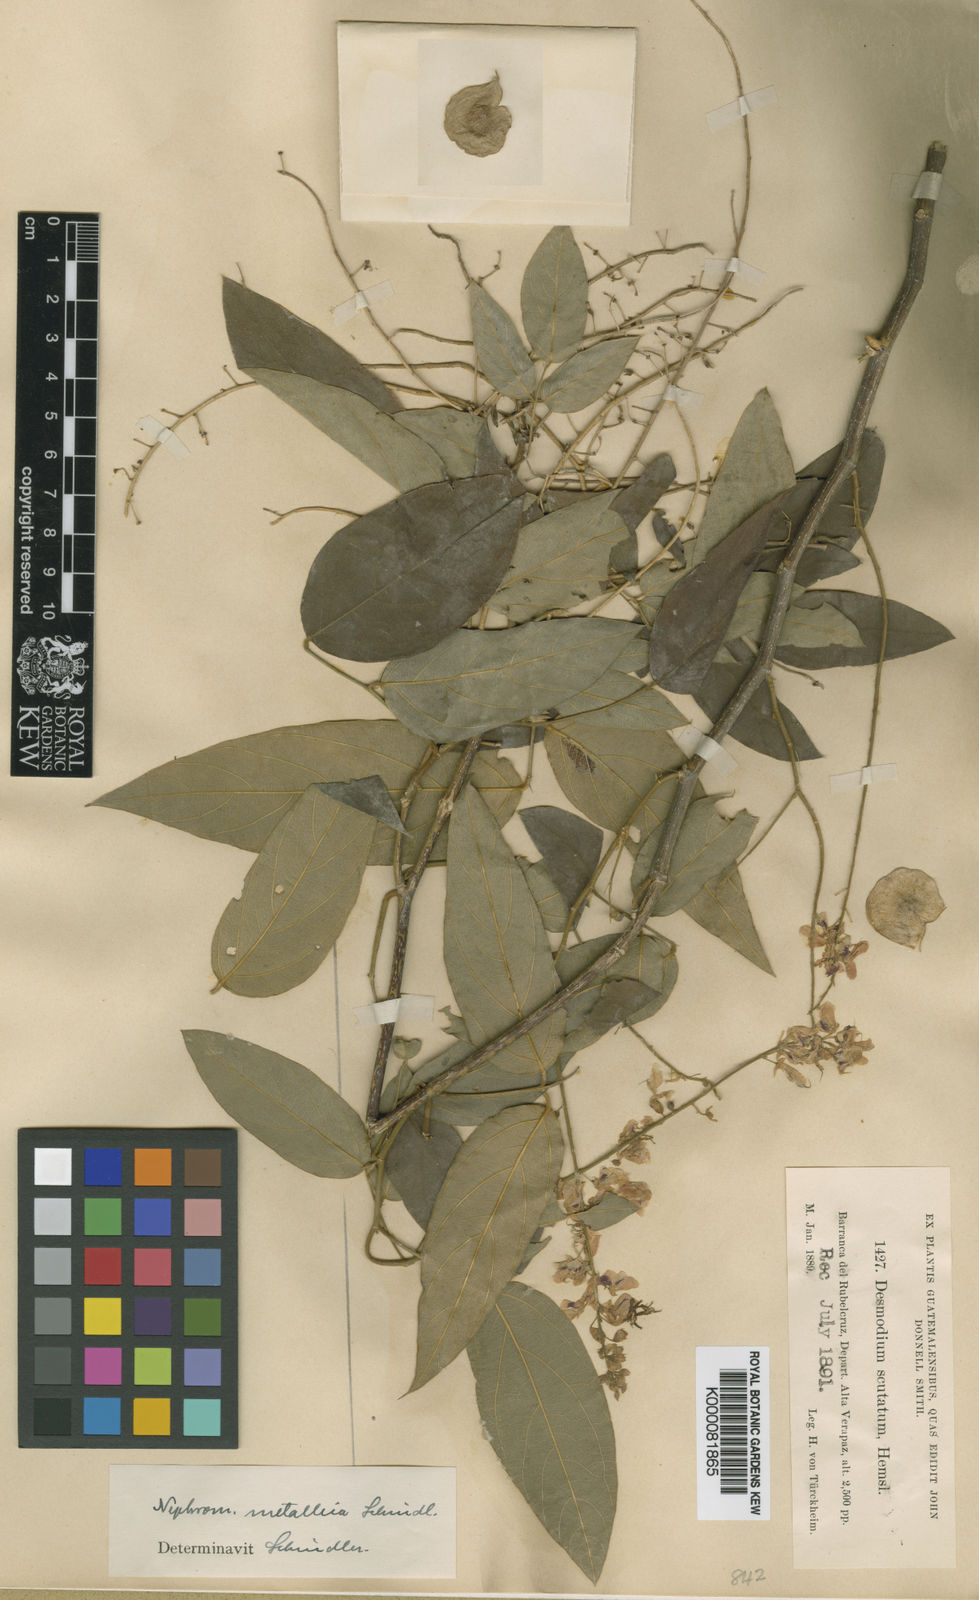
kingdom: Plantae
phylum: Tracheophyta
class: Magnoliopsida
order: Fabales
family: Fabaceae
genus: Desmodium
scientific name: Desmodium scutatum
